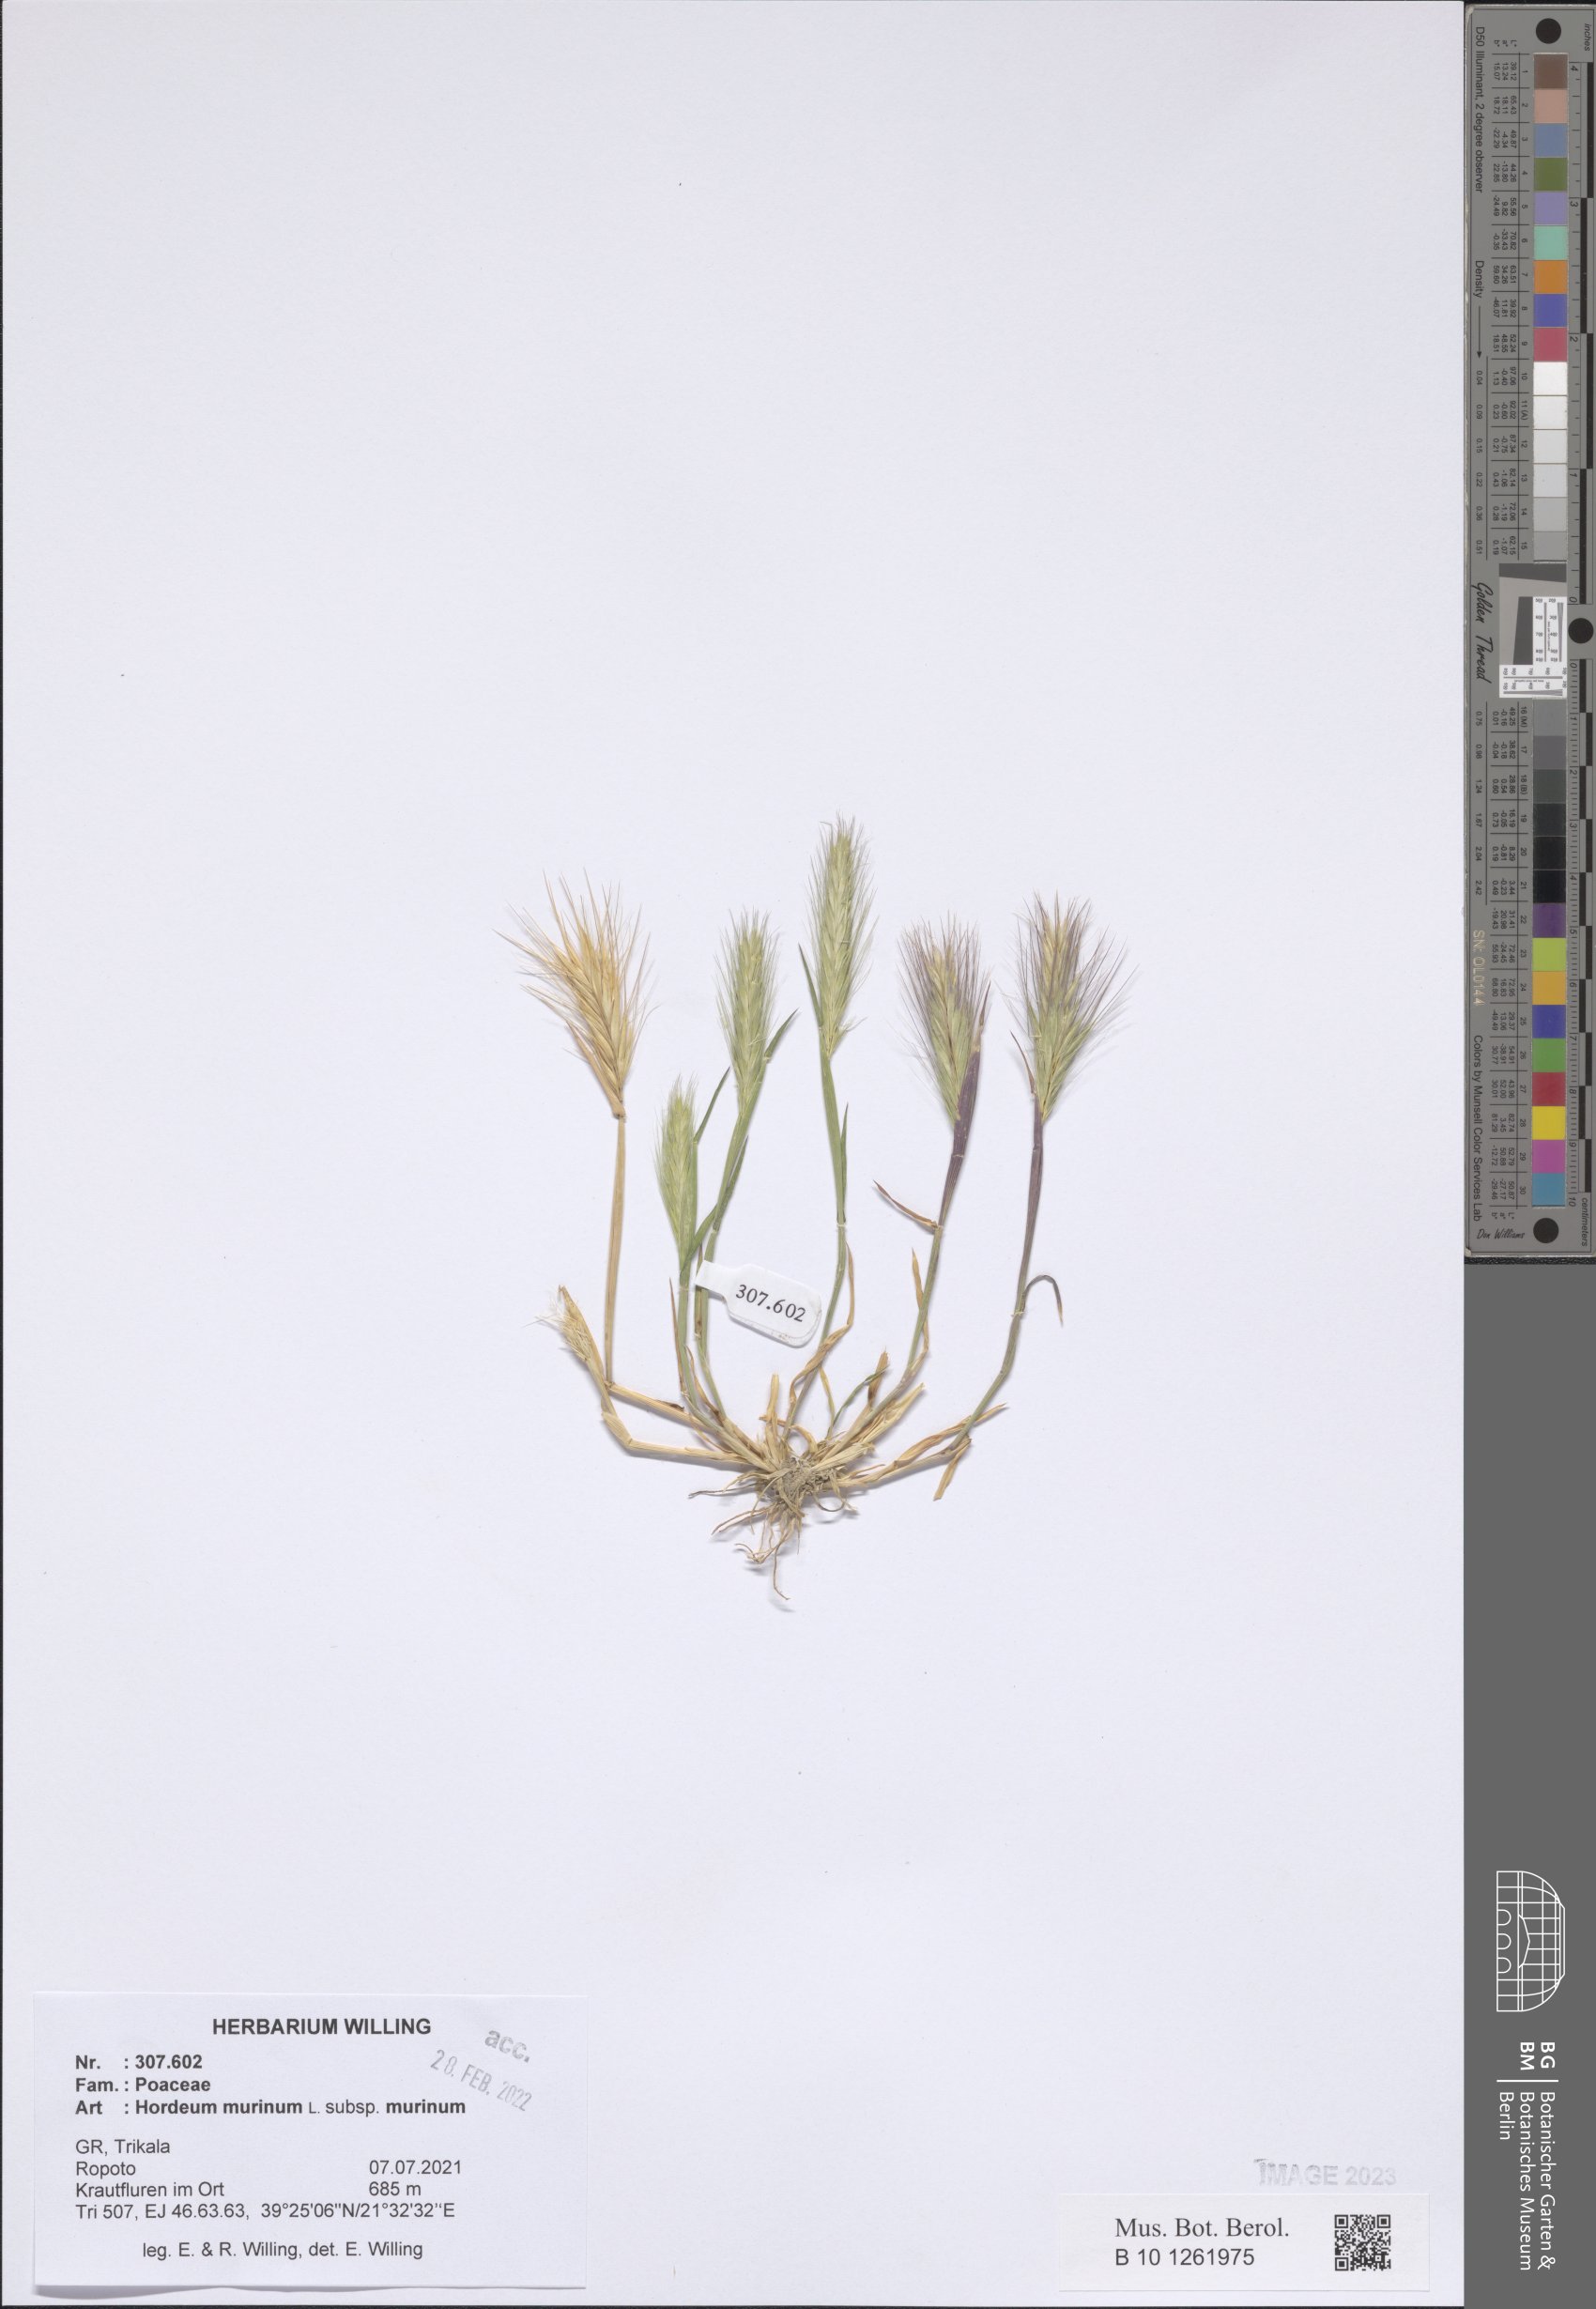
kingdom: Plantae
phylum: Tracheophyta
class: Liliopsida
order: Poales
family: Poaceae
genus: Hordeum
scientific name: Hordeum murinum
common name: Wall barley
